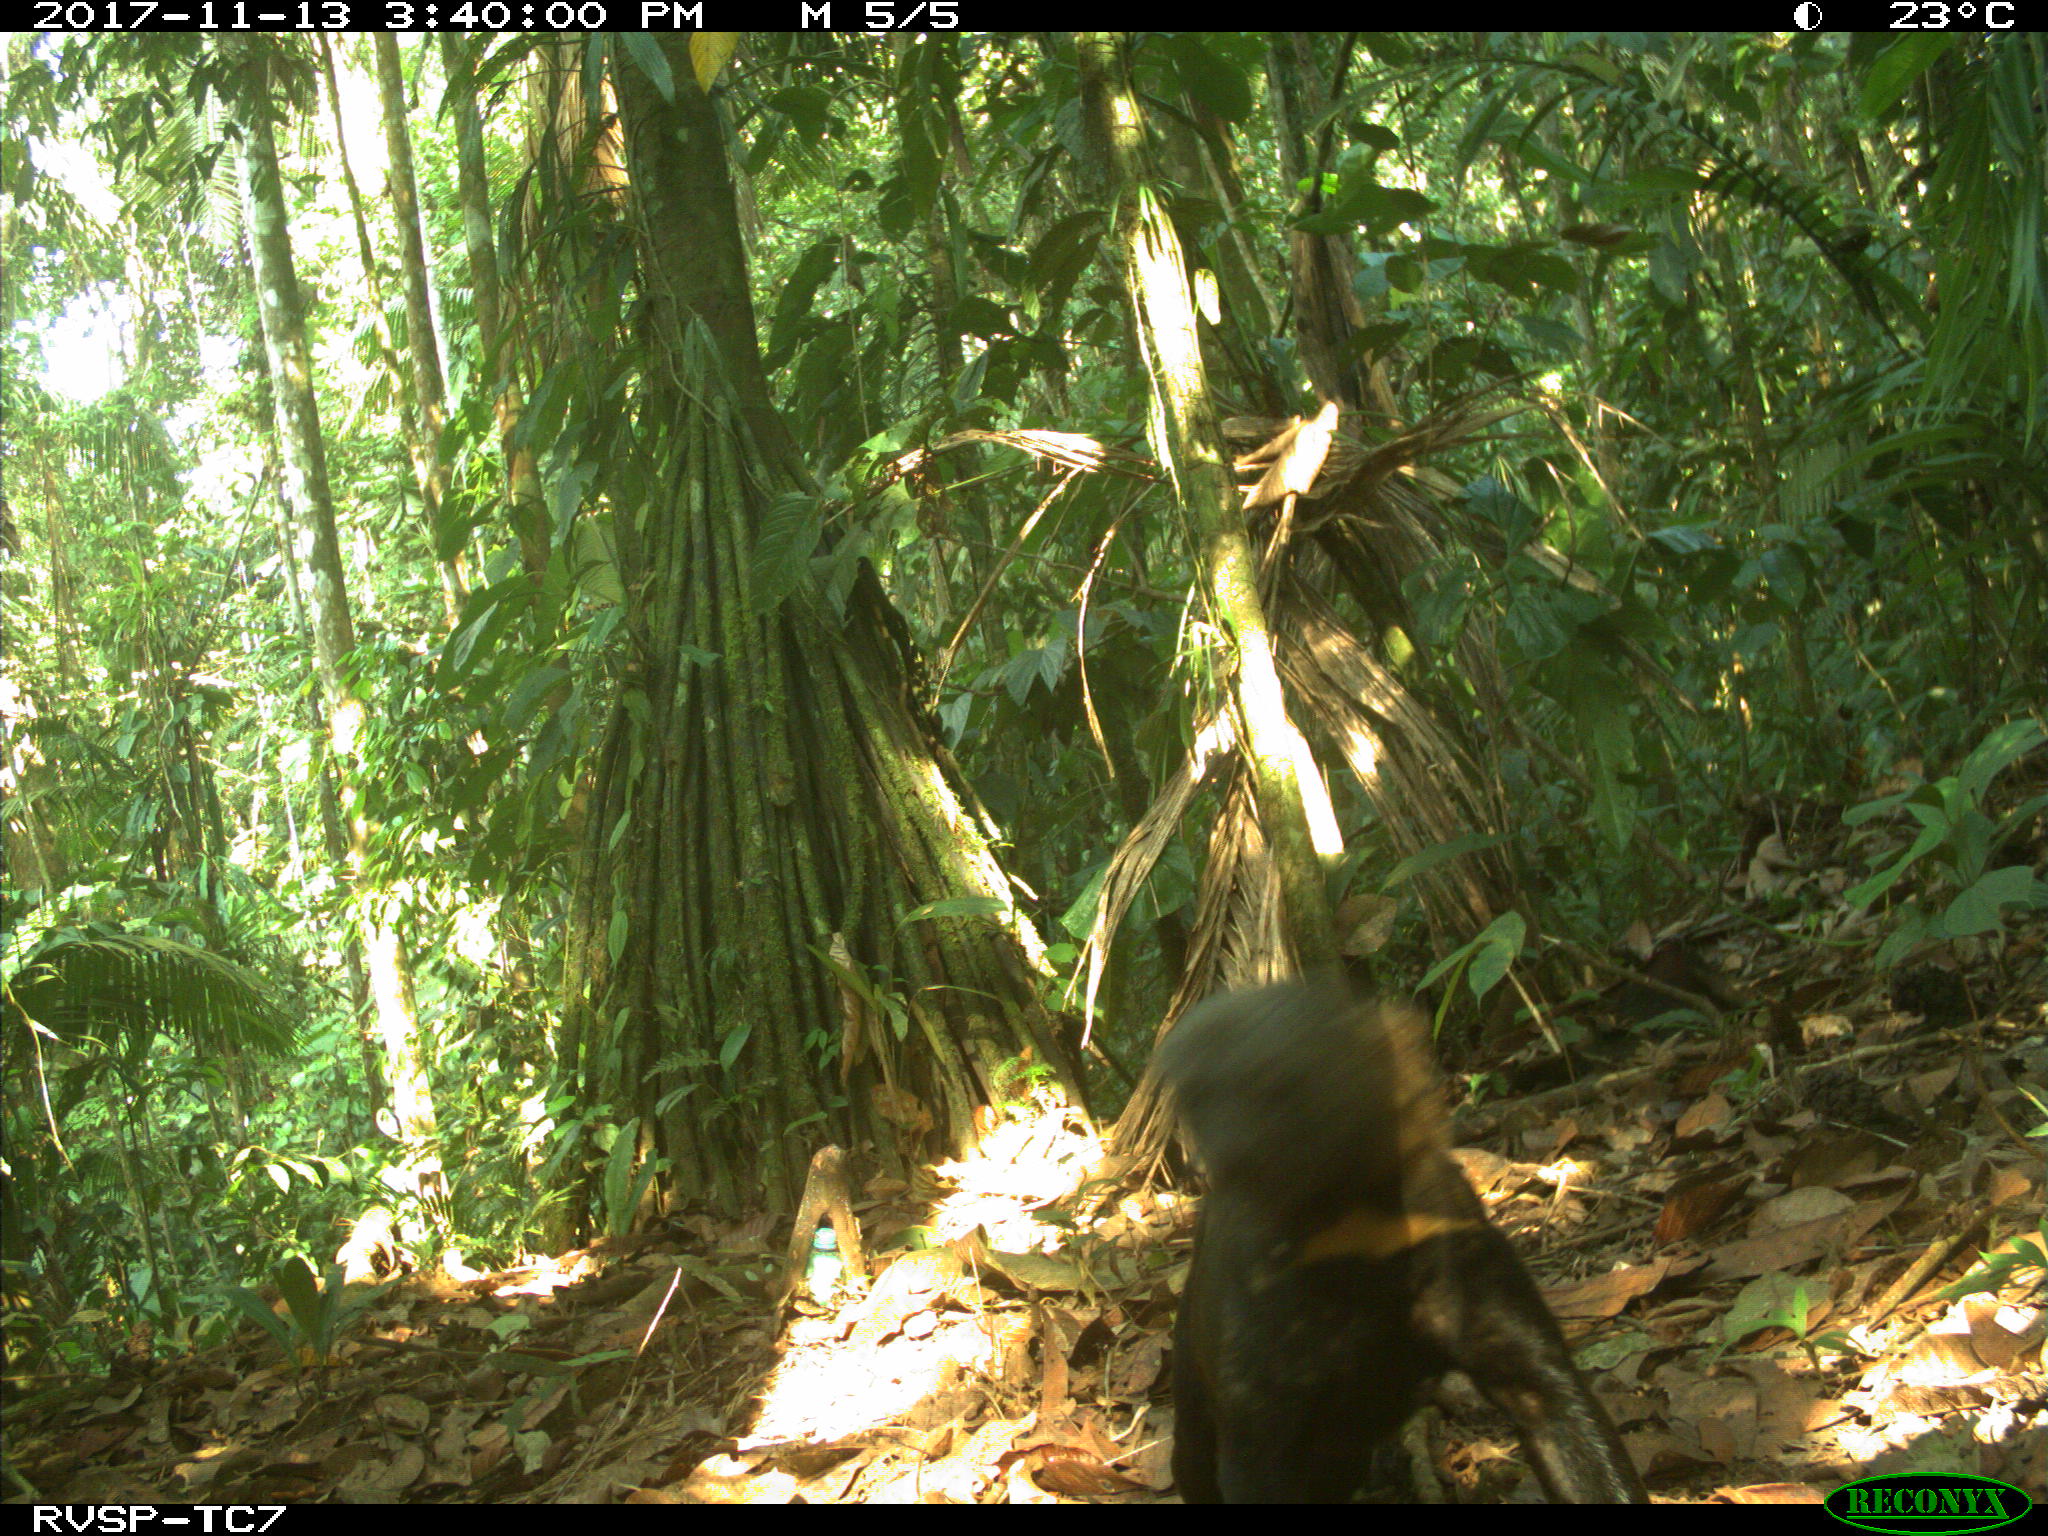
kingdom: Animalia
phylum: Chordata
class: Mammalia
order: Carnivora
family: Mustelidae
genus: Eira
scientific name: Eira barbara
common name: Tayra
